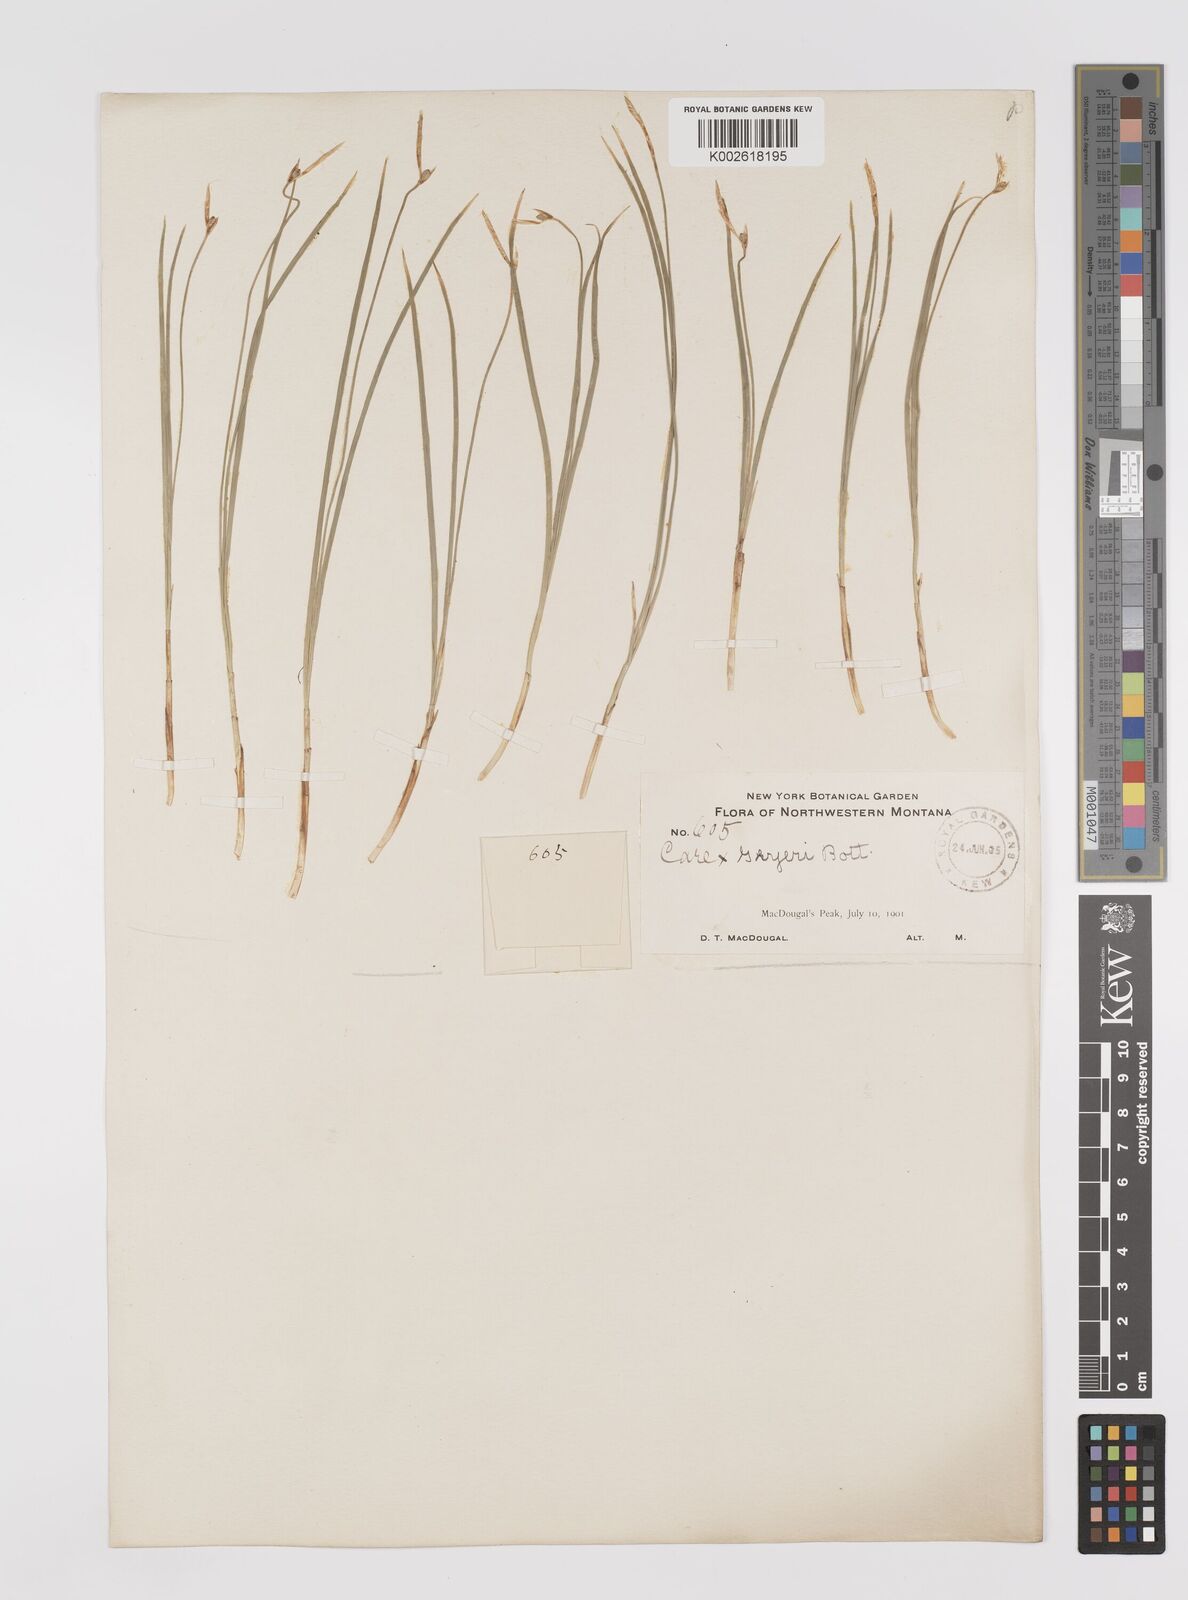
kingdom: Plantae
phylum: Tracheophyta
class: Liliopsida
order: Poales
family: Cyperaceae
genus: Carex
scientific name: Carex geyeri
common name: Elk sedge
